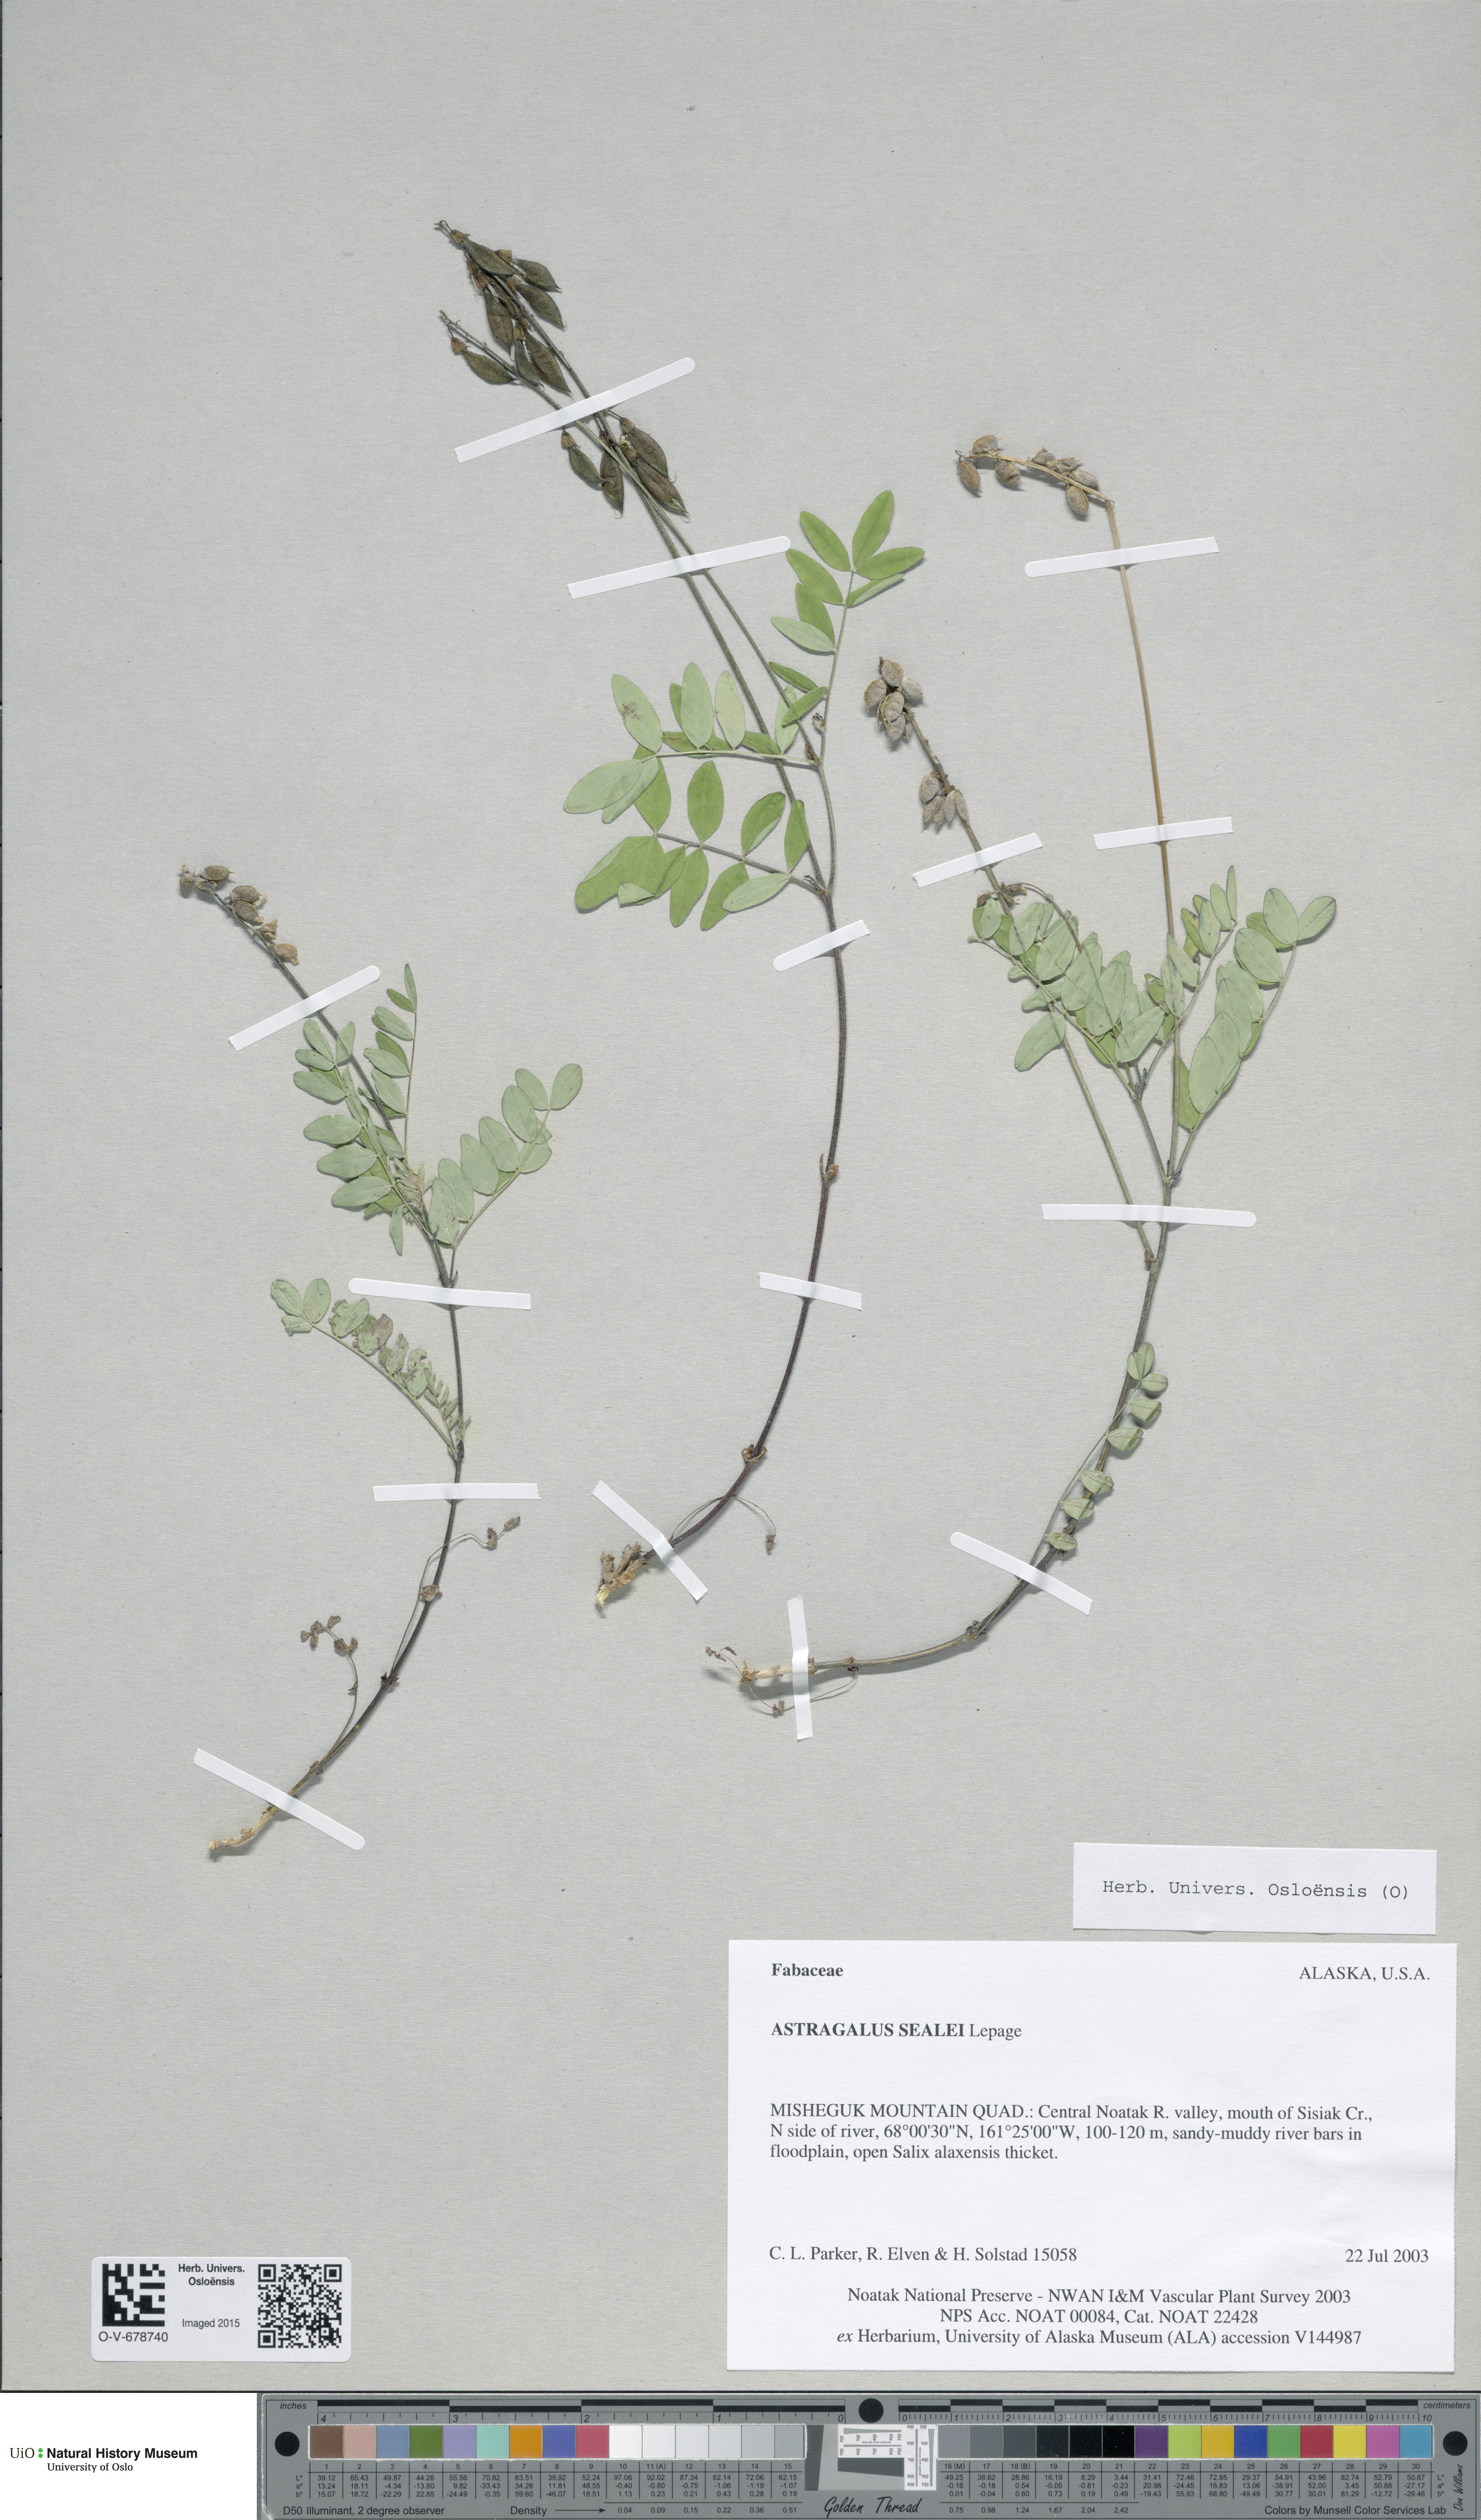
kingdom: Plantae
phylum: Tracheophyta
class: Magnoliopsida
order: Fabales
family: Fabaceae
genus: Astragalus
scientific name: Astragalus eucosmus
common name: Elegant milk-vetch
